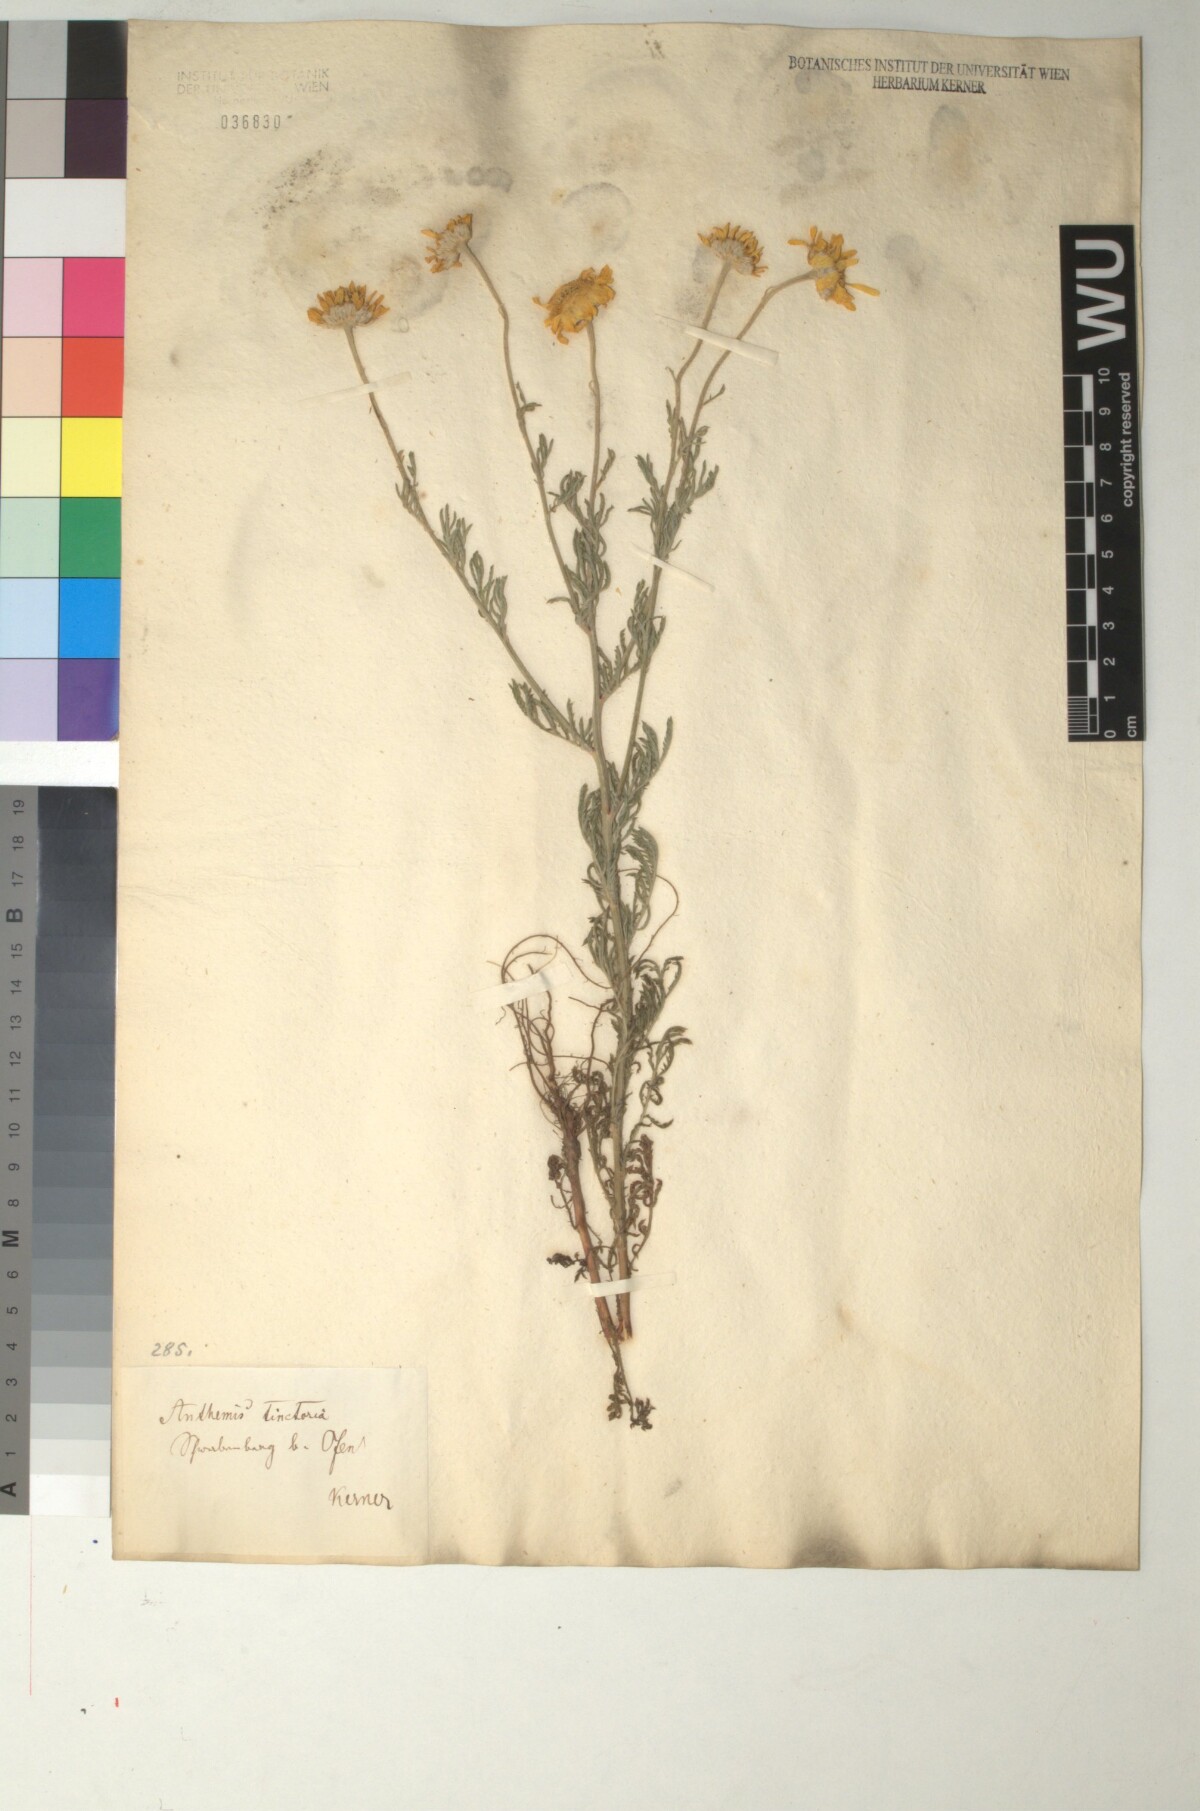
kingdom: Plantae
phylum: Tracheophyta
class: Magnoliopsida
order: Asterales
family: Asteraceae
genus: Cota
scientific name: Cota tinctoria
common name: Golden chamomile
